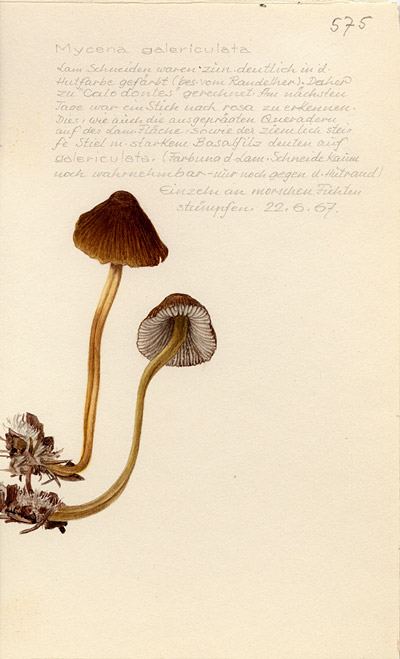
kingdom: Fungi
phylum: Basidiomycota
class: Agaricomycetes
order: Agaricales
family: Mycenaceae
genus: Mycena
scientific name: Mycena galericulata
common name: Bonnet mycena
